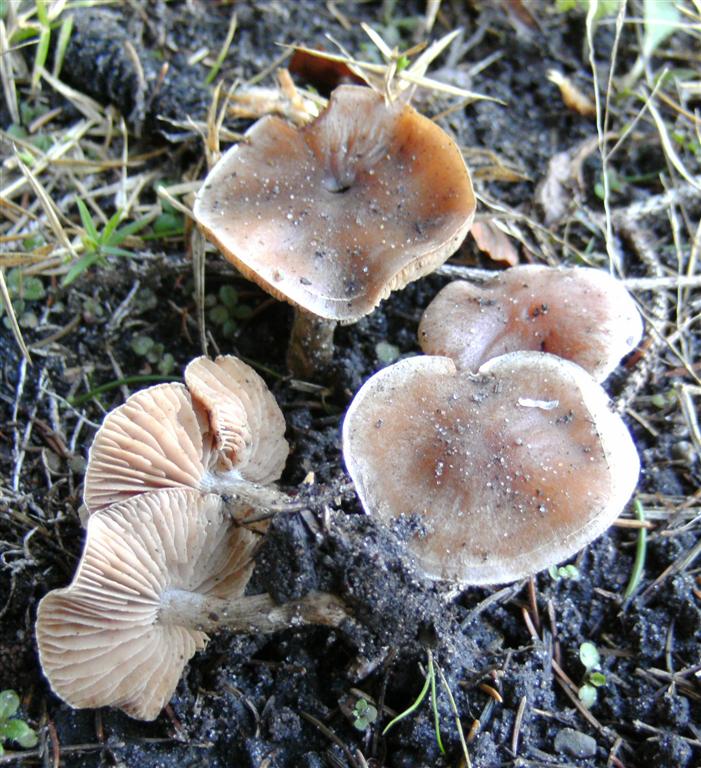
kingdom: Fungi
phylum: Basidiomycota
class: Agaricomycetes
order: Agaricales
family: Hymenogastraceae
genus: Hebeloma
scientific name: Hebeloma mesophaeum
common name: lerbrun tåreblad
